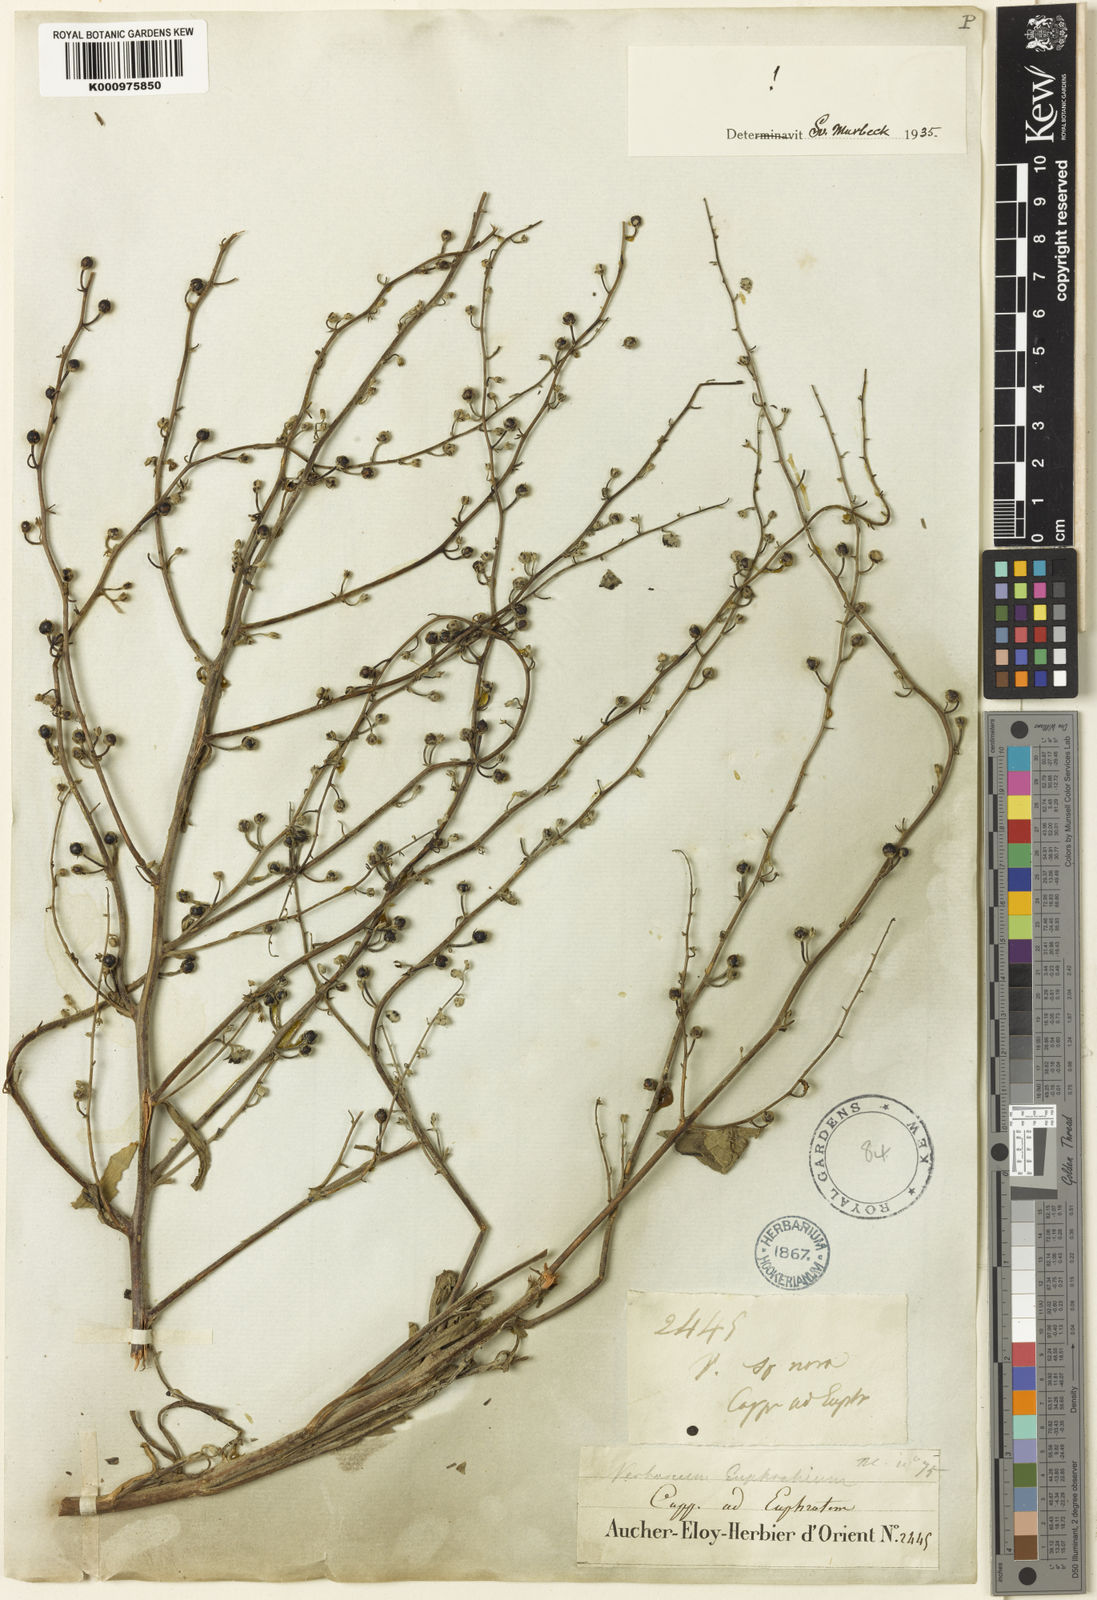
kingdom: Plantae
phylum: Tracheophyta
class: Magnoliopsida
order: Lamiales
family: Scrophulariaceae
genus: Verbascum
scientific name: Verbascum euphraticum
